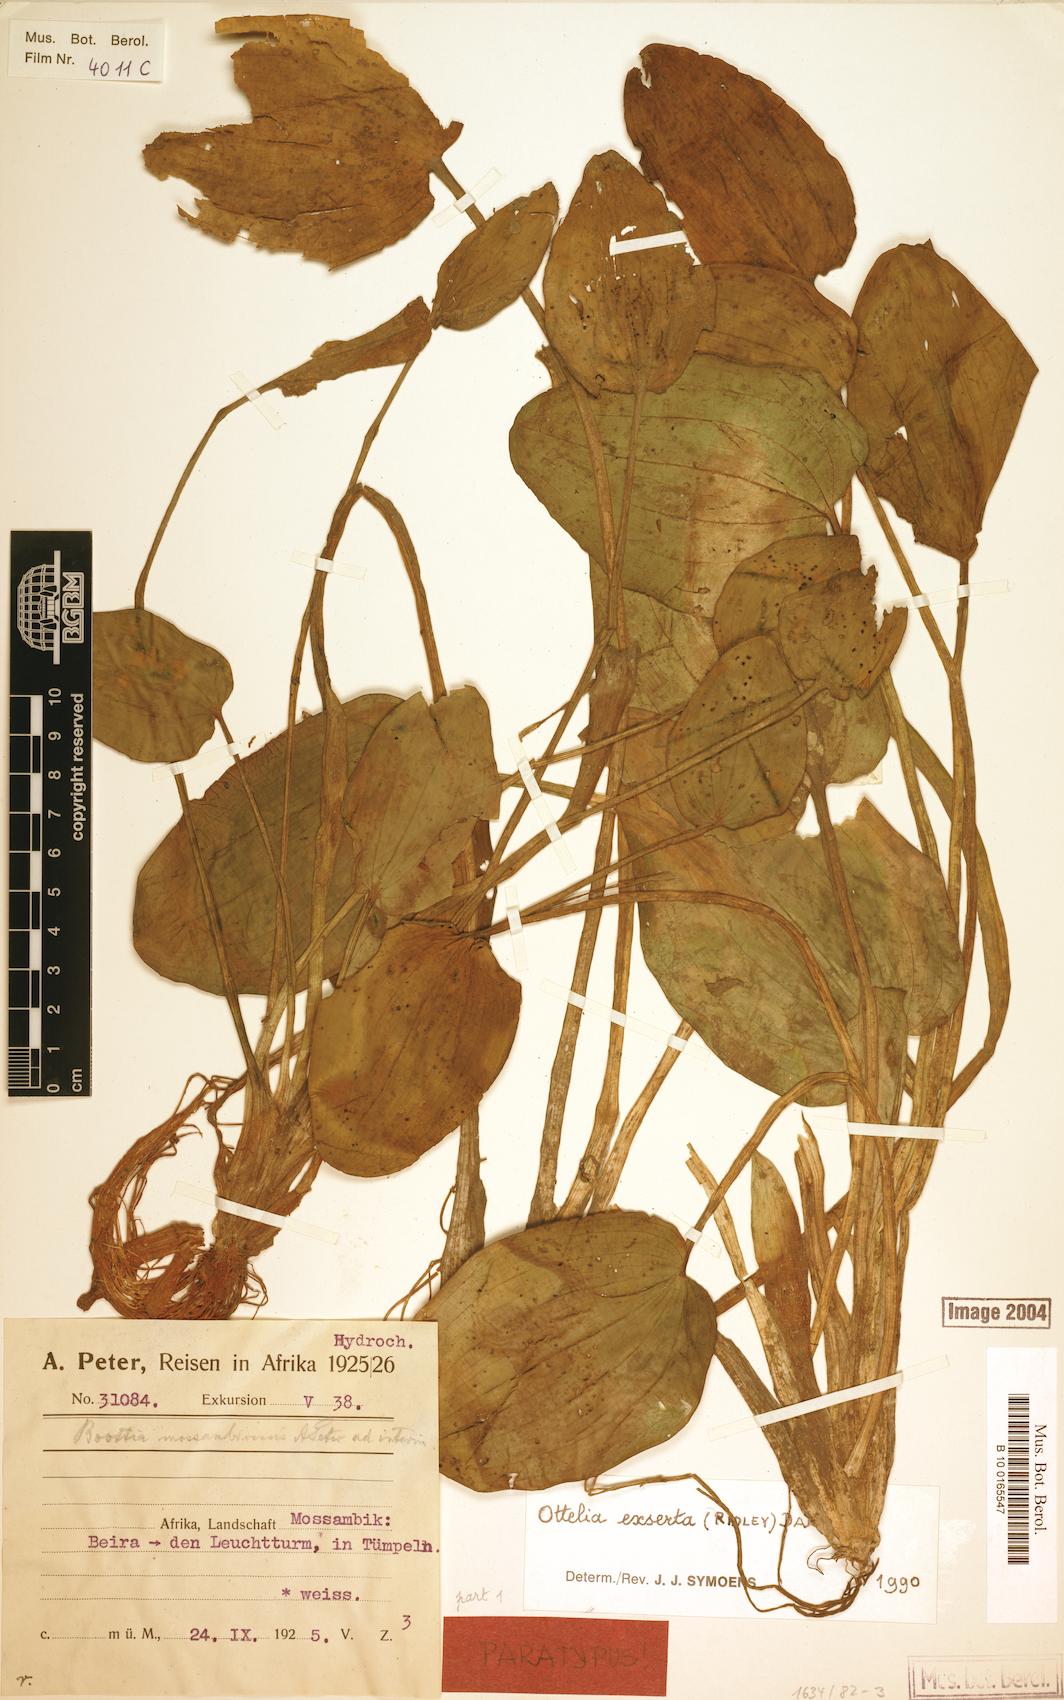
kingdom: Plantae
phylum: Tracheophyta
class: Liliopsida
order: Alismatales
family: Hydrocharitaceae
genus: Ottelia
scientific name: Ottelia exserta
